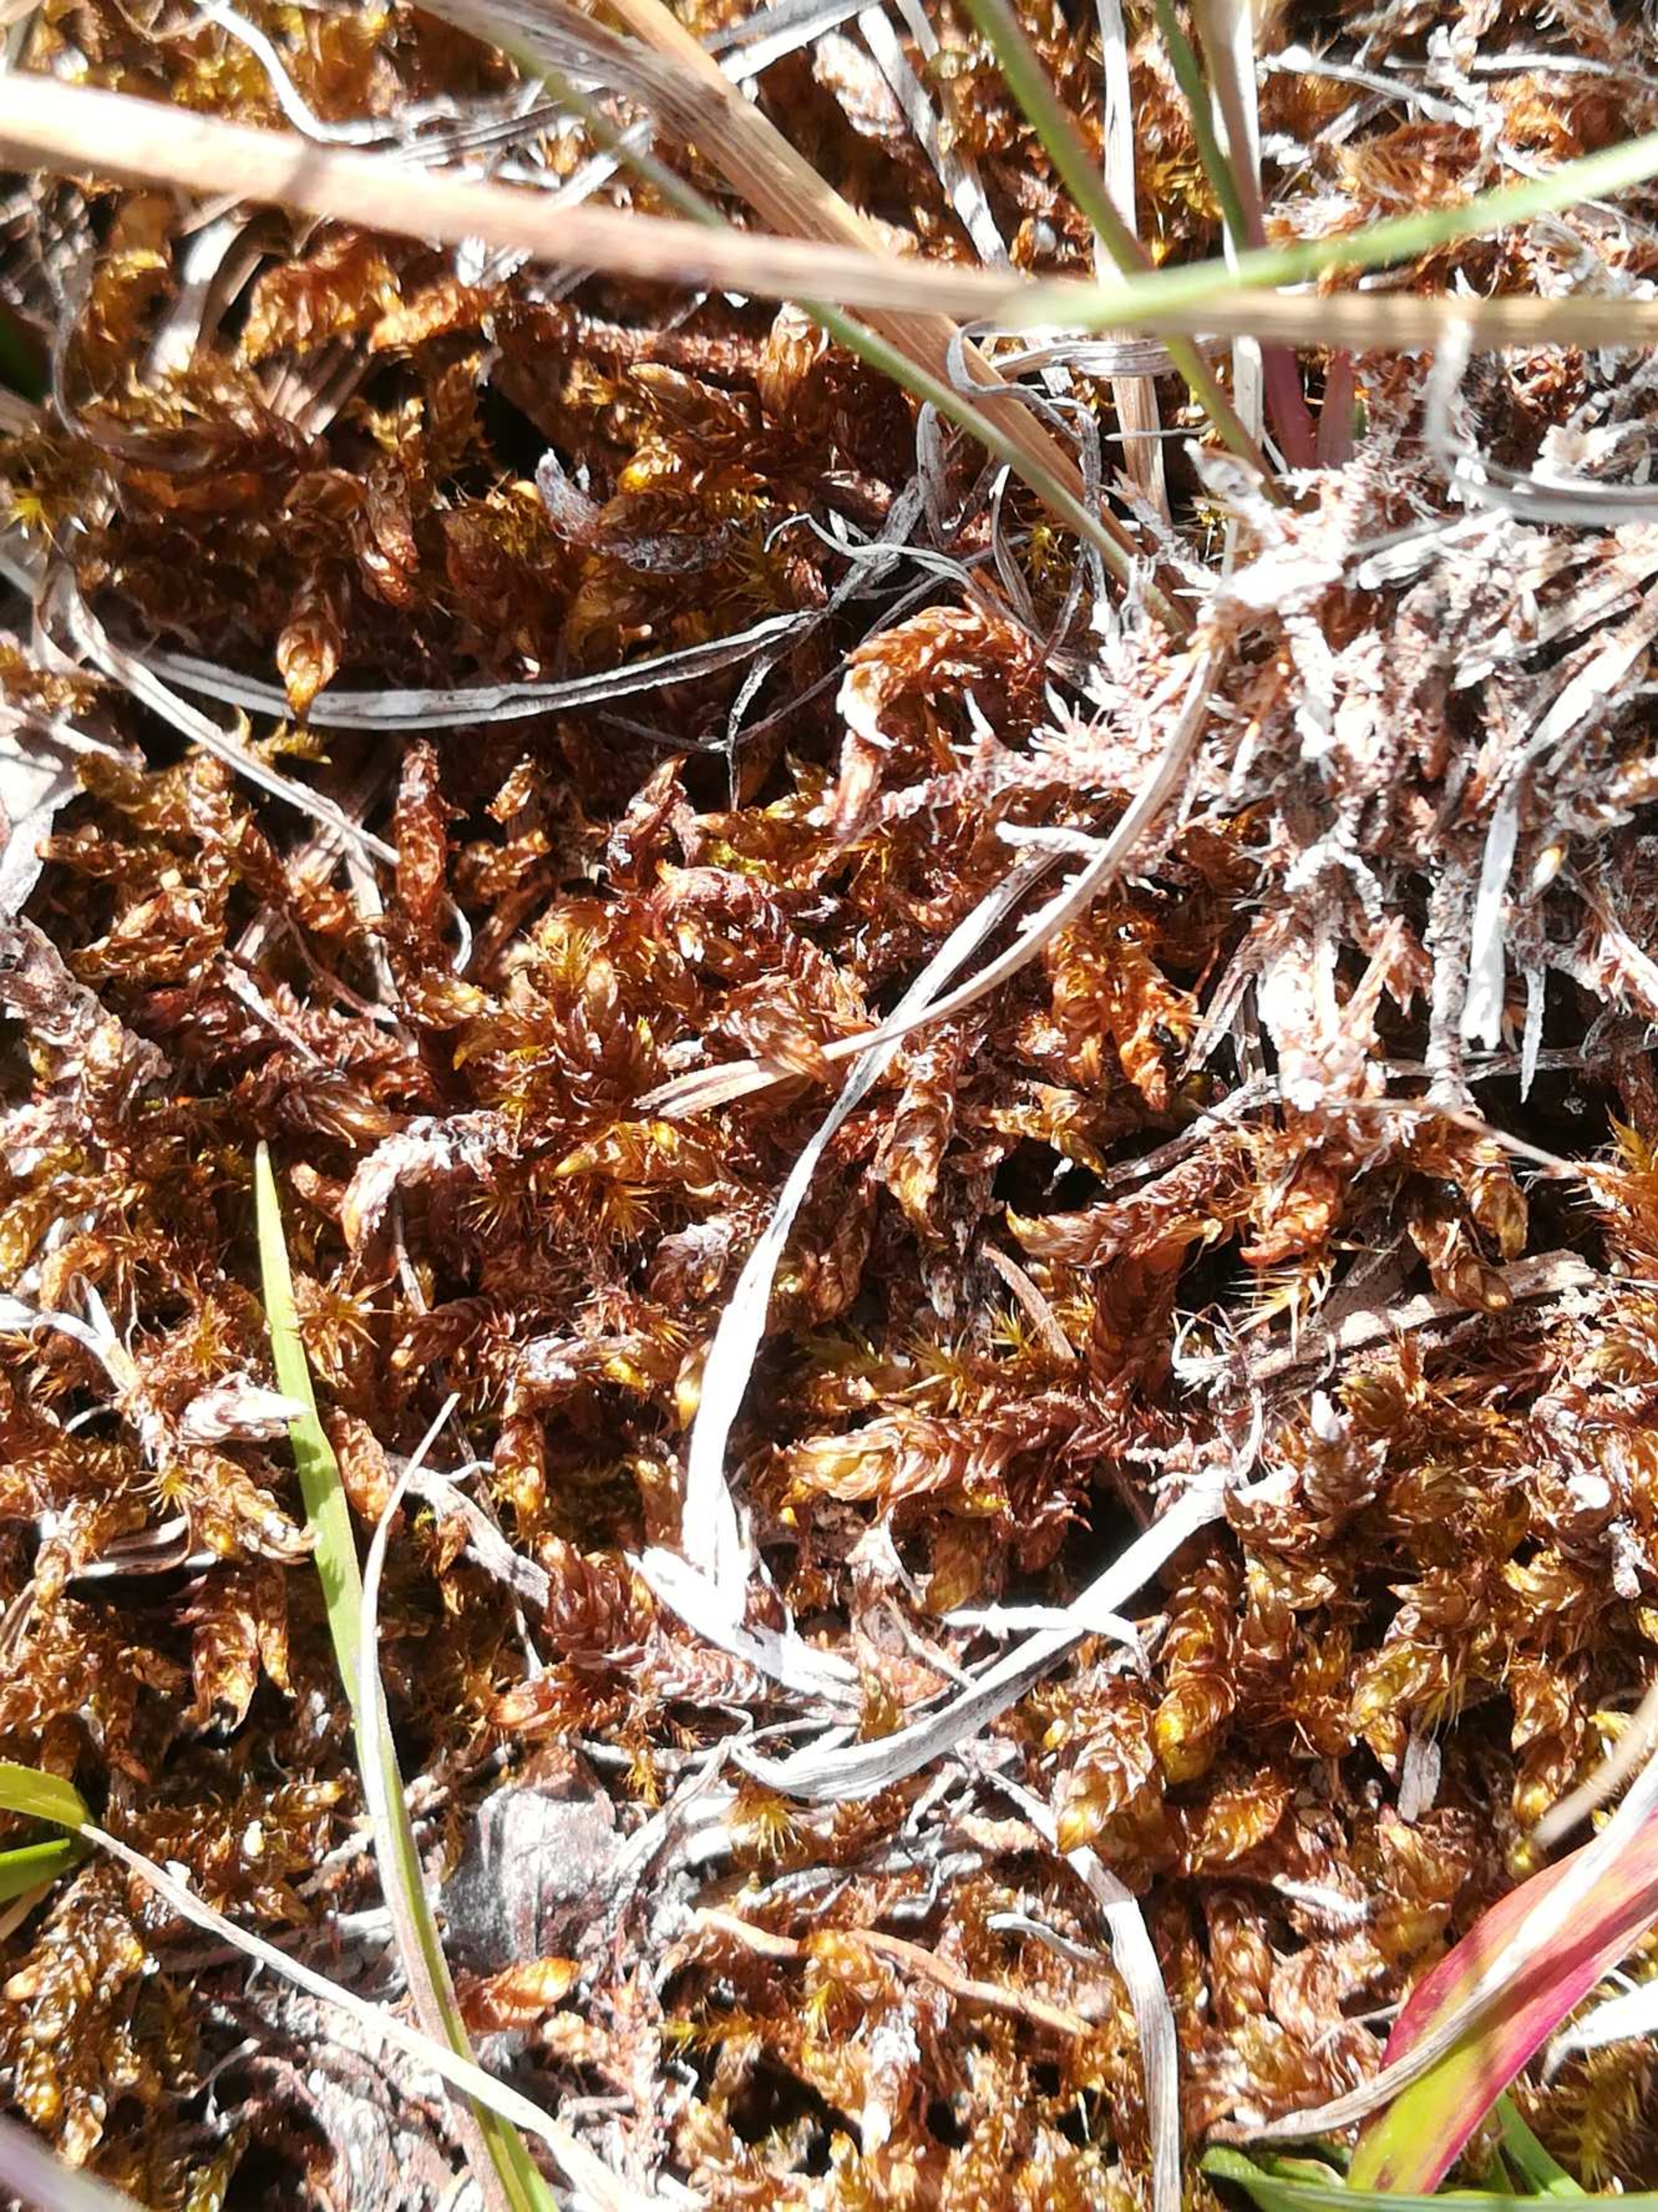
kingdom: Plantae
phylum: Bryophyta
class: Bryopsida
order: Hypnales
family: Scorpidiaceae
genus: Scorpidium
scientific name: Scorpidium scorpioides
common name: Stor skorpionmos
